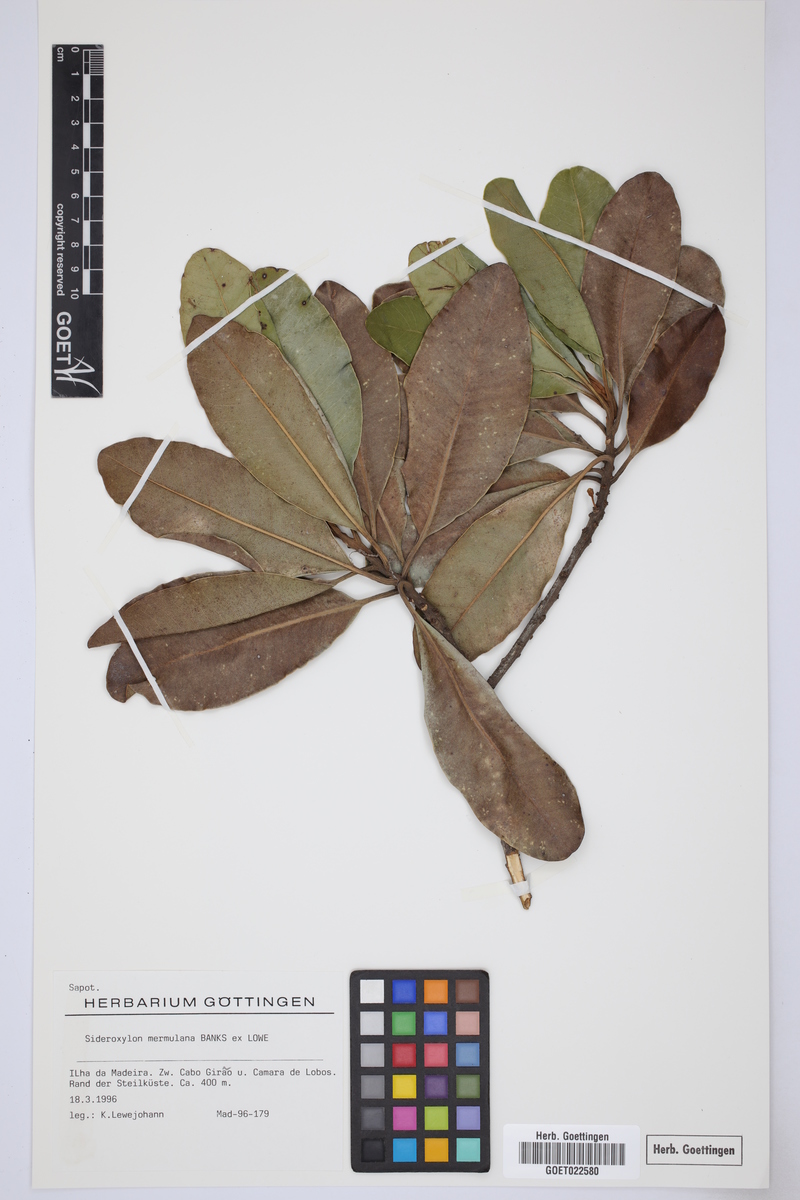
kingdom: Plantae
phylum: Tracheophyta
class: Magnoliopsida
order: Ericales
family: Sapotaceae
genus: Sideroxylon
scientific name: Sideroxylon mirmulano
